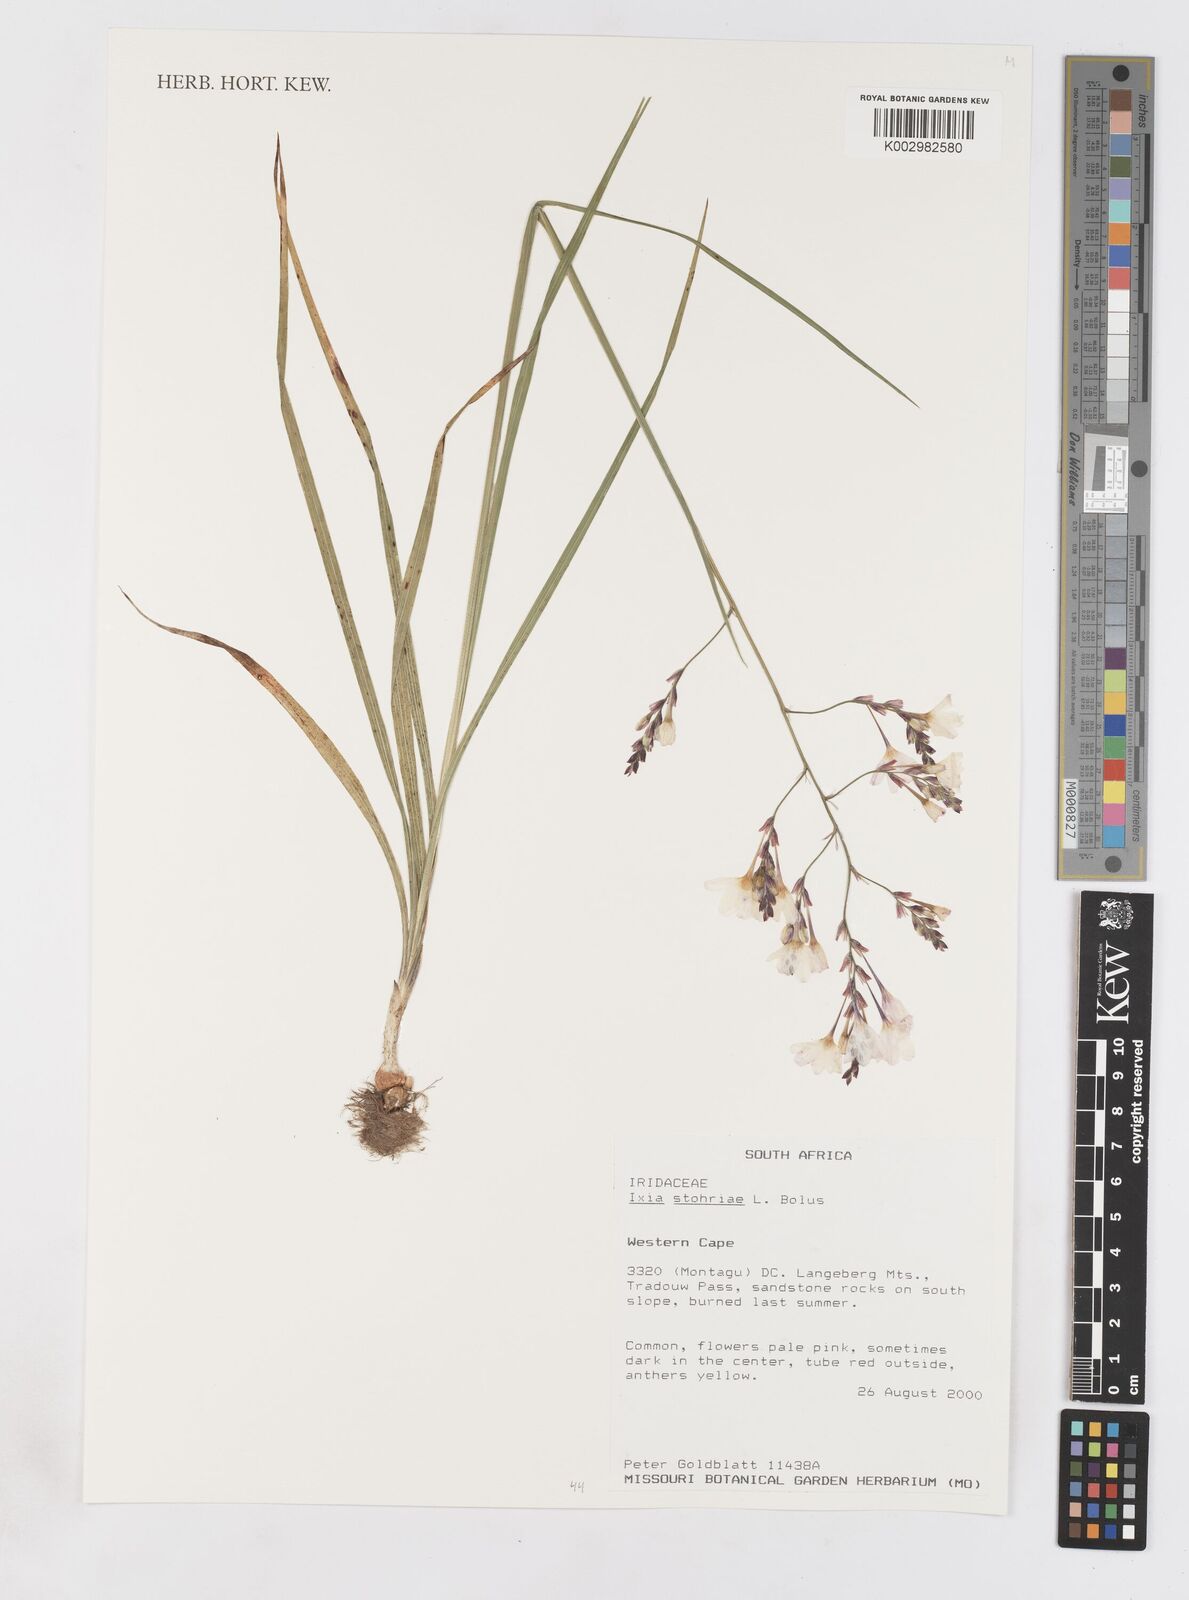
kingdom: Plantae
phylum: Tracheophyta
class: Liliopsida
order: Asparagales
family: Iridaceae
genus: Ixia
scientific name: Ixia stohriae
